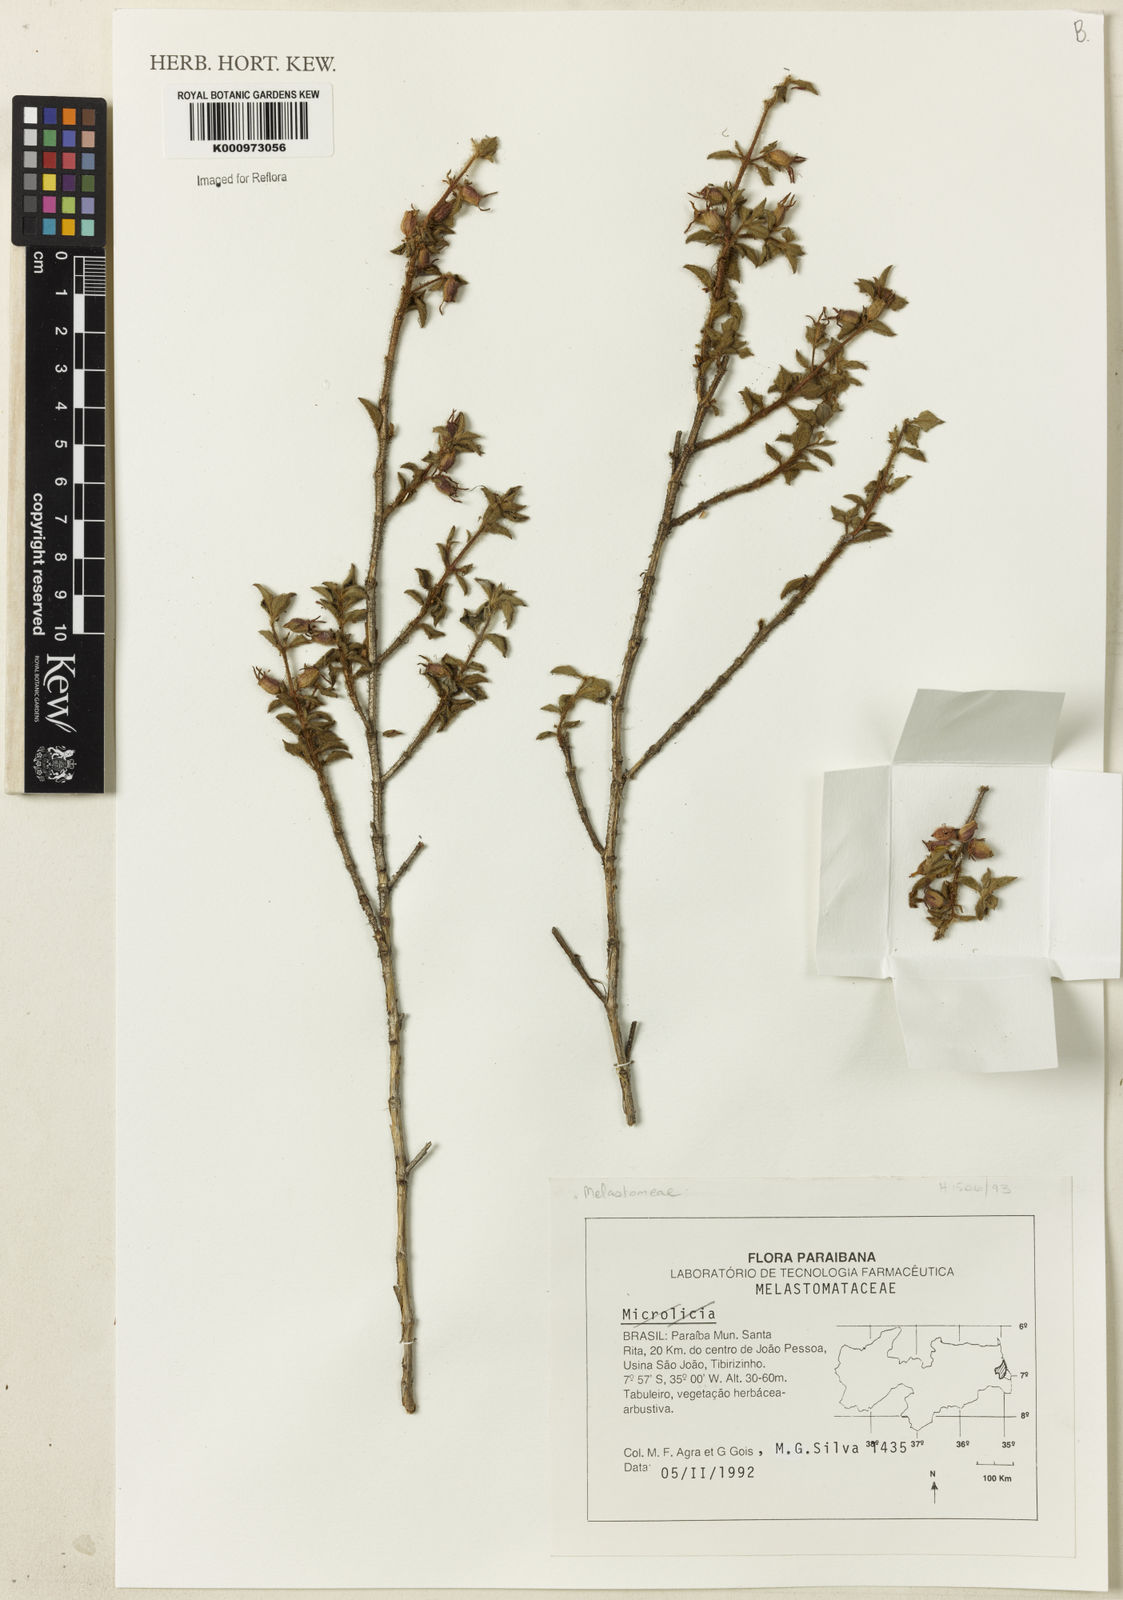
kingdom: Plantae
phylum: Tracheophyta
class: Magnoliopsida
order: Myrtales
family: Melastomataceae
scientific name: Melastomataceae
